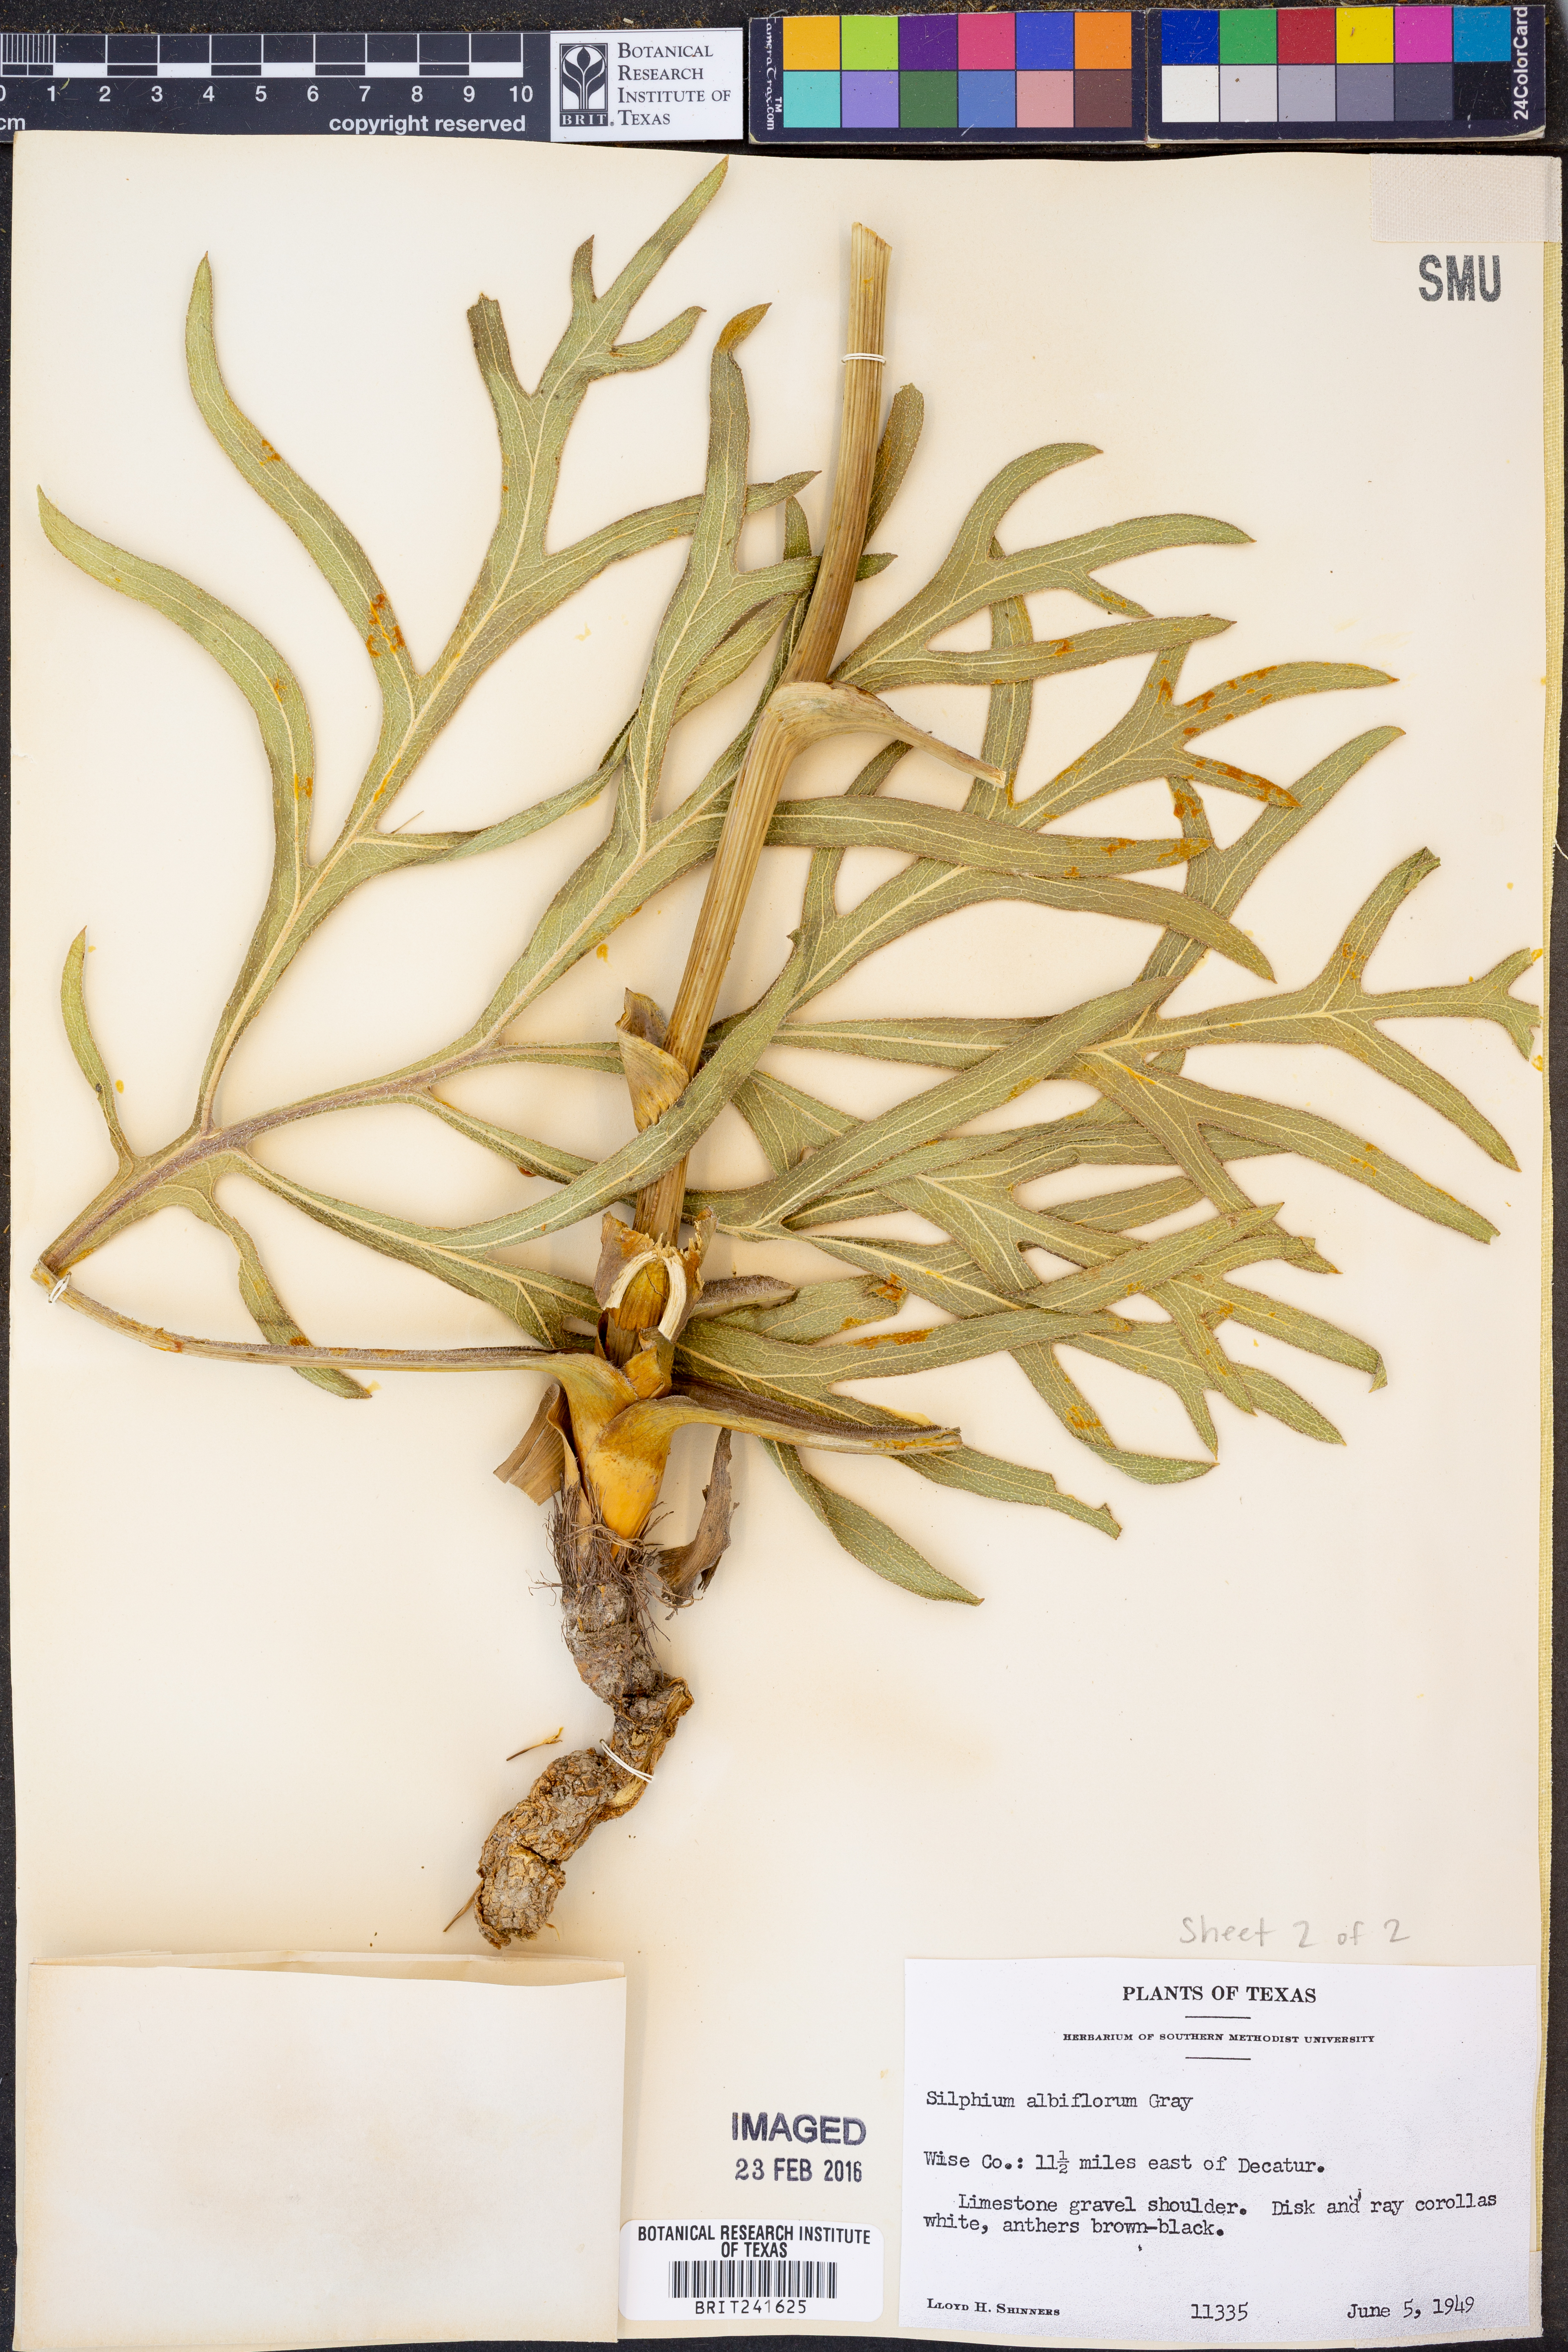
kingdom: Plantae
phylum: Tracheophyta
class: Magnoliopsida
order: Asterales
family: Asteraceae
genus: Silphium
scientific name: Silphium albiflorum
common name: White rosinweed
